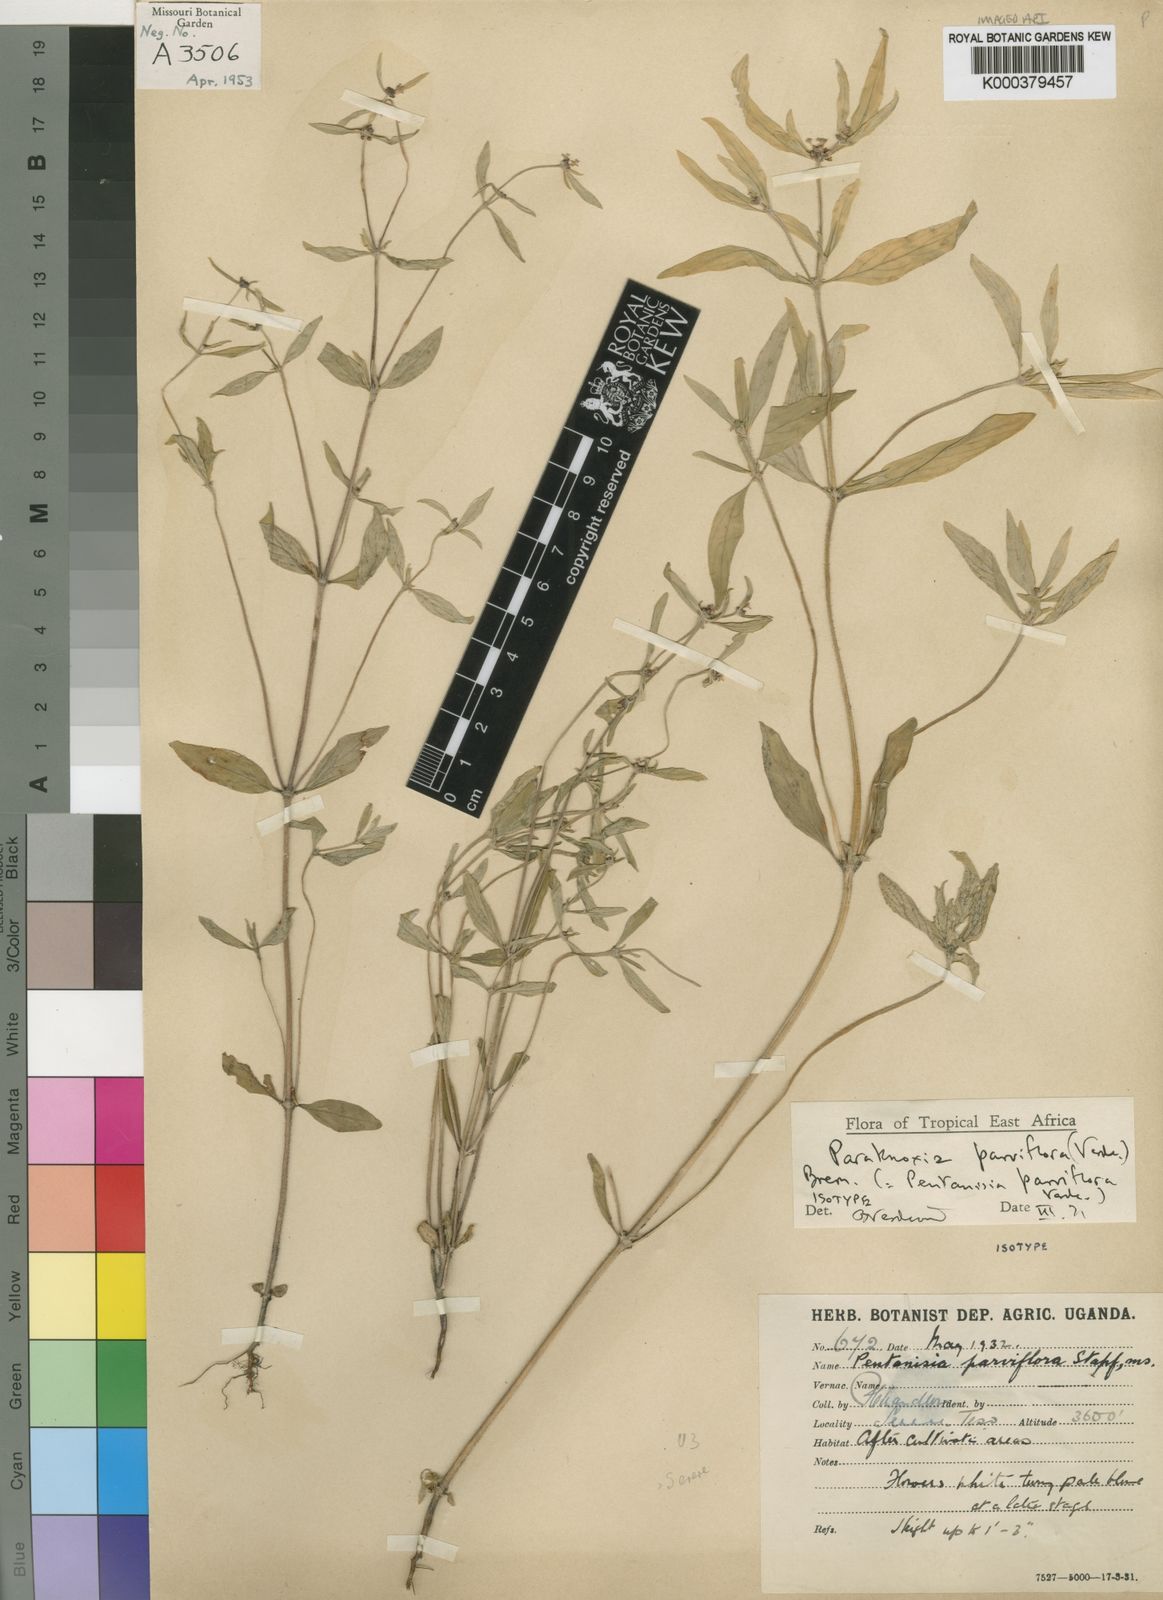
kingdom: Plantae
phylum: Tracheophyta
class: Magnoliopsida
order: Gentianales
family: Rubiaceae
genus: Paraknoxia
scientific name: Paraknoxia parviflora
